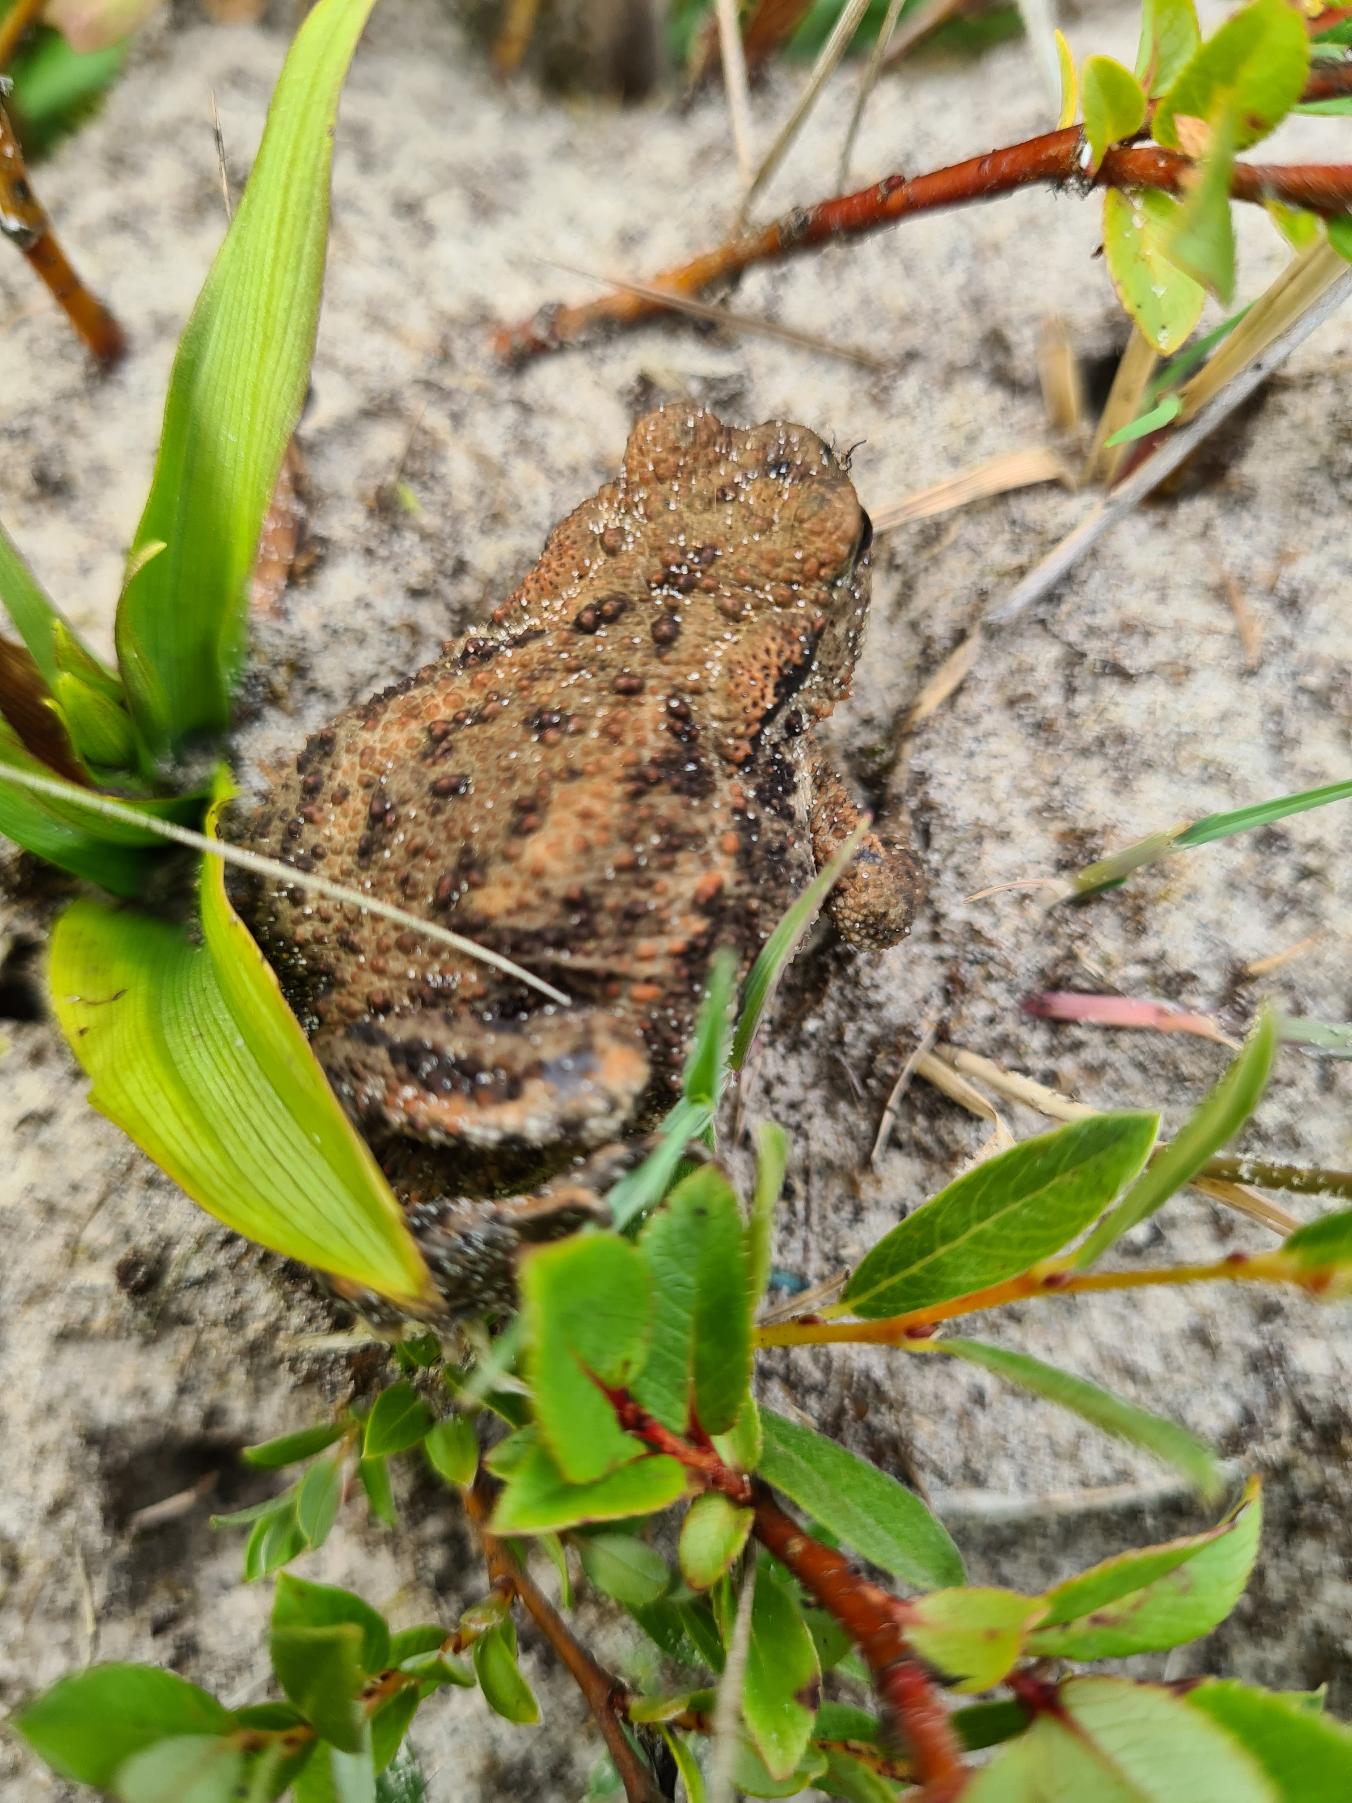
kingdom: Animalia
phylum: Chordata
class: Amphibia
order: Anura
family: Bufonidae
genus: Bufo
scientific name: Bufo bufo
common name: Skrubtudse
